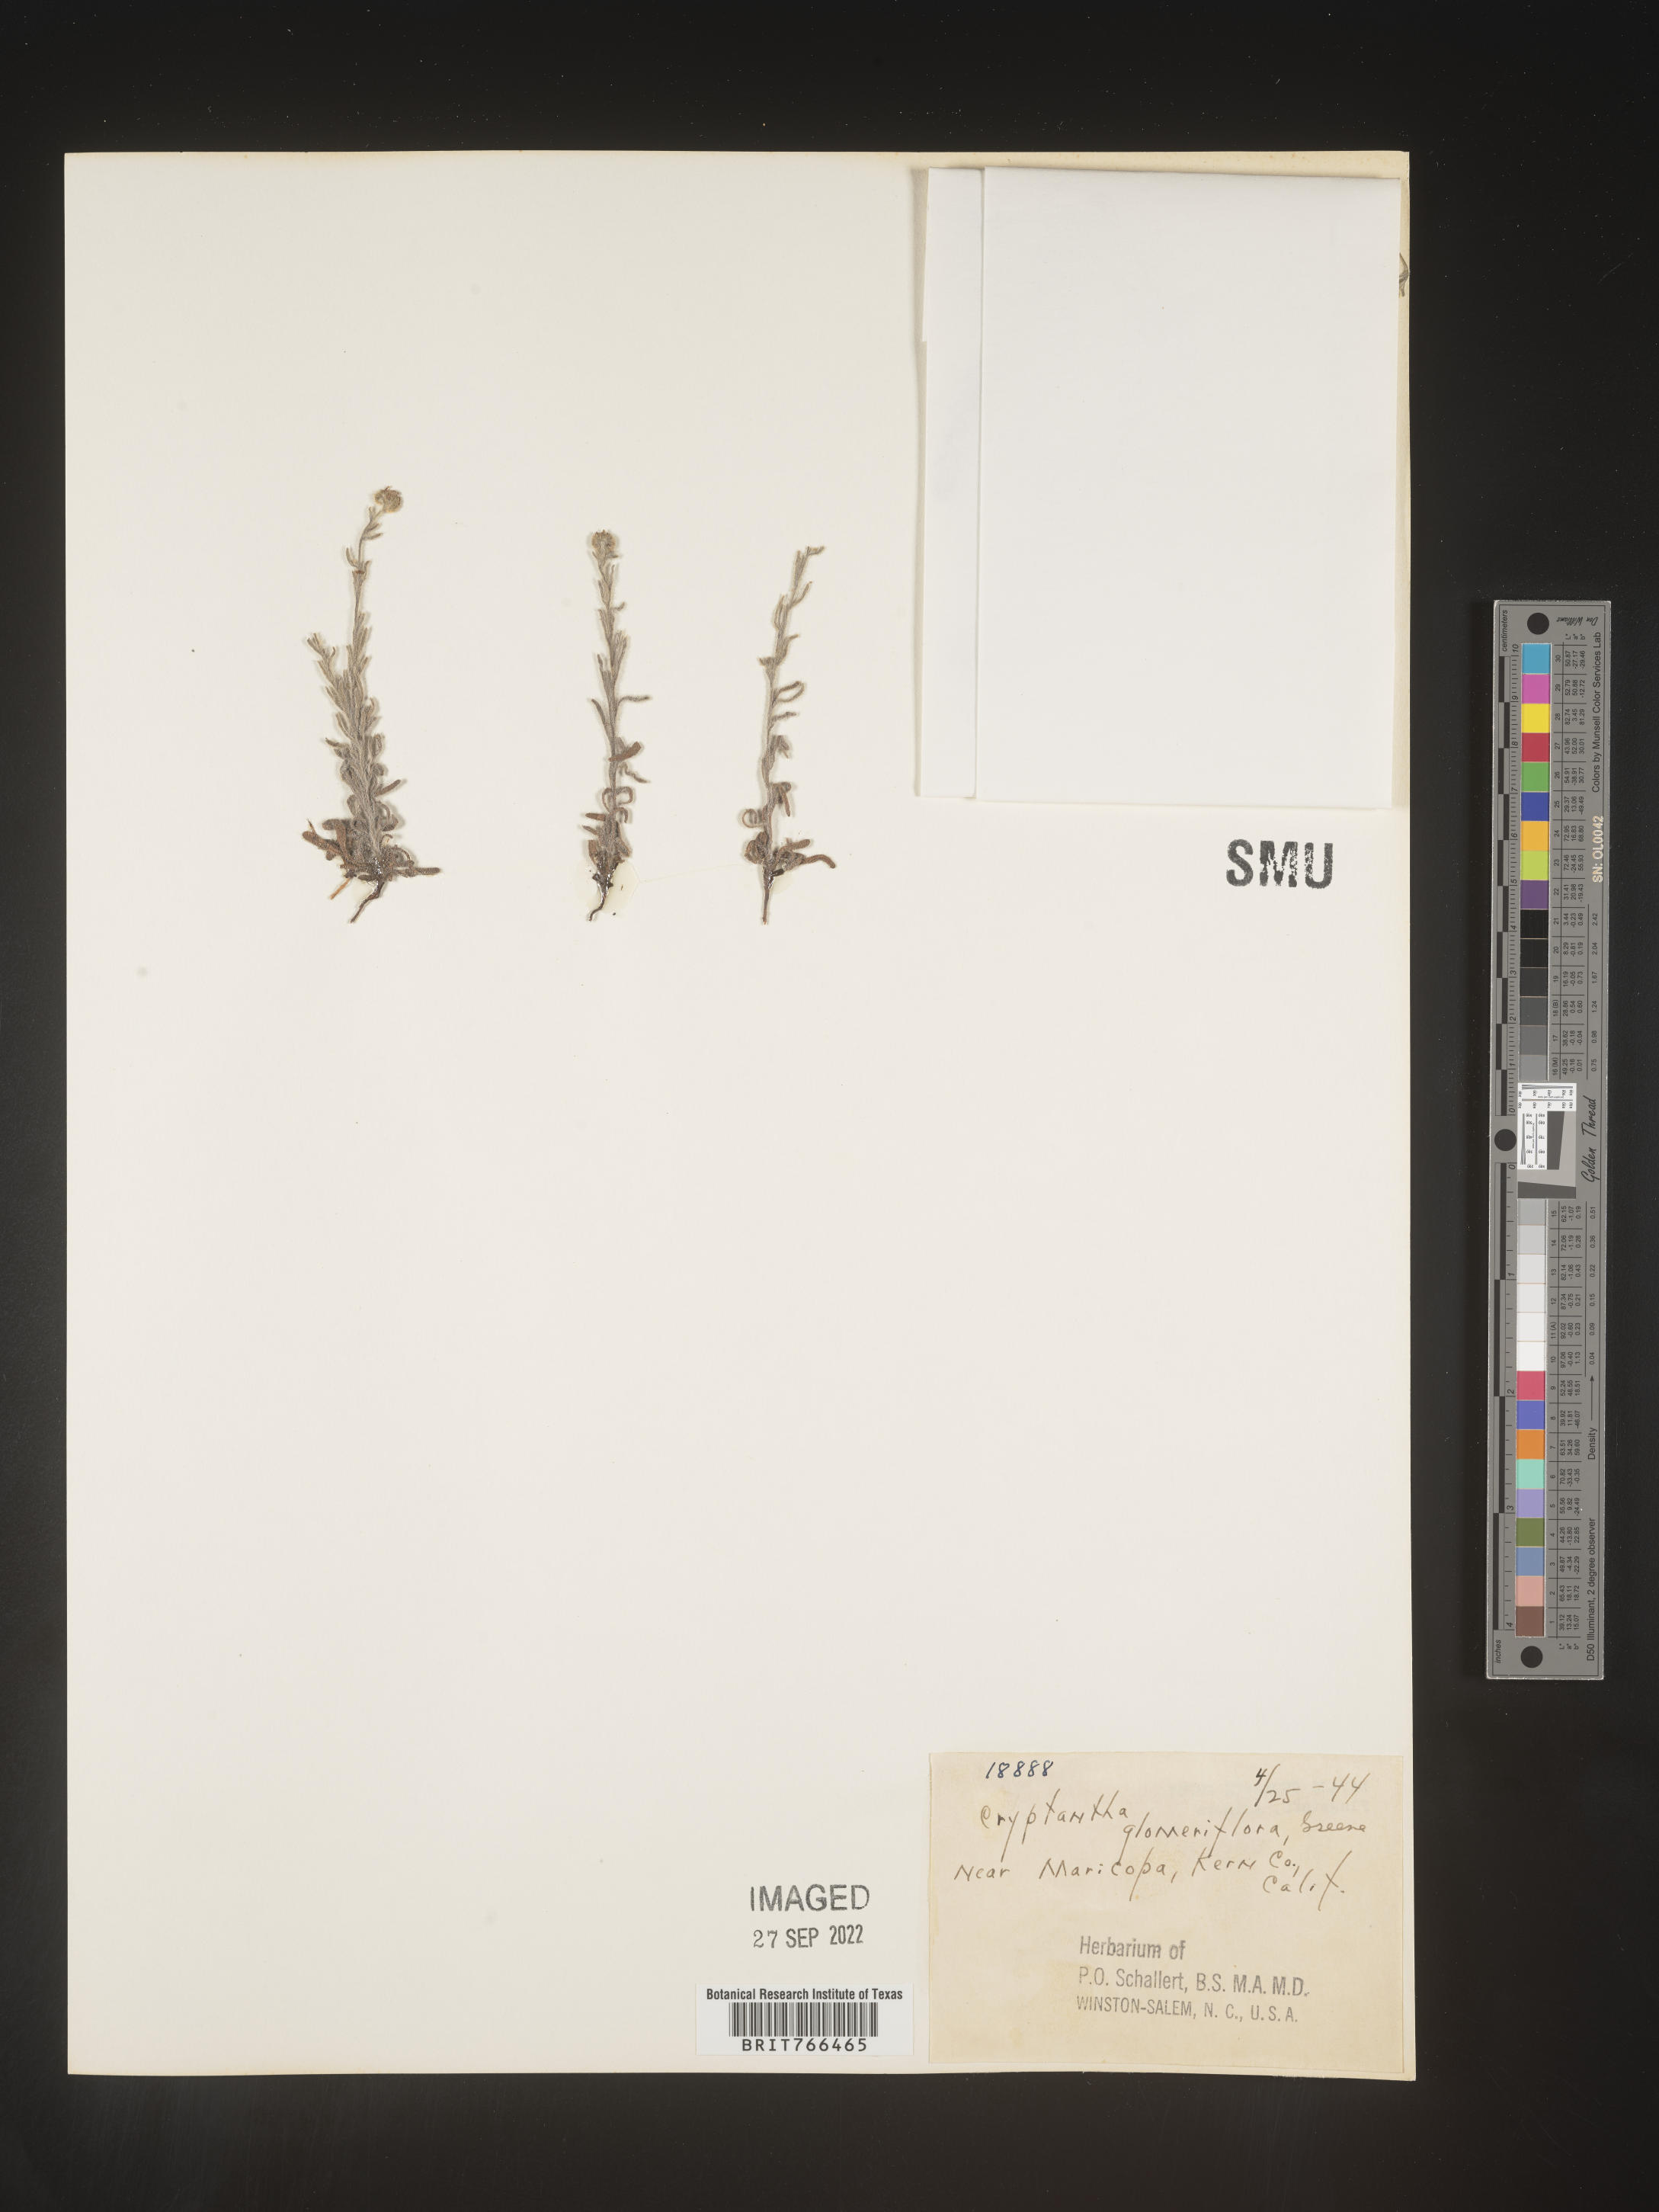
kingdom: Plantae
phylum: Tracheophyta
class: Magnoliopsida
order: Boraginales
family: Boraginaceae
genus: Cryptantha
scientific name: Cryptantha
